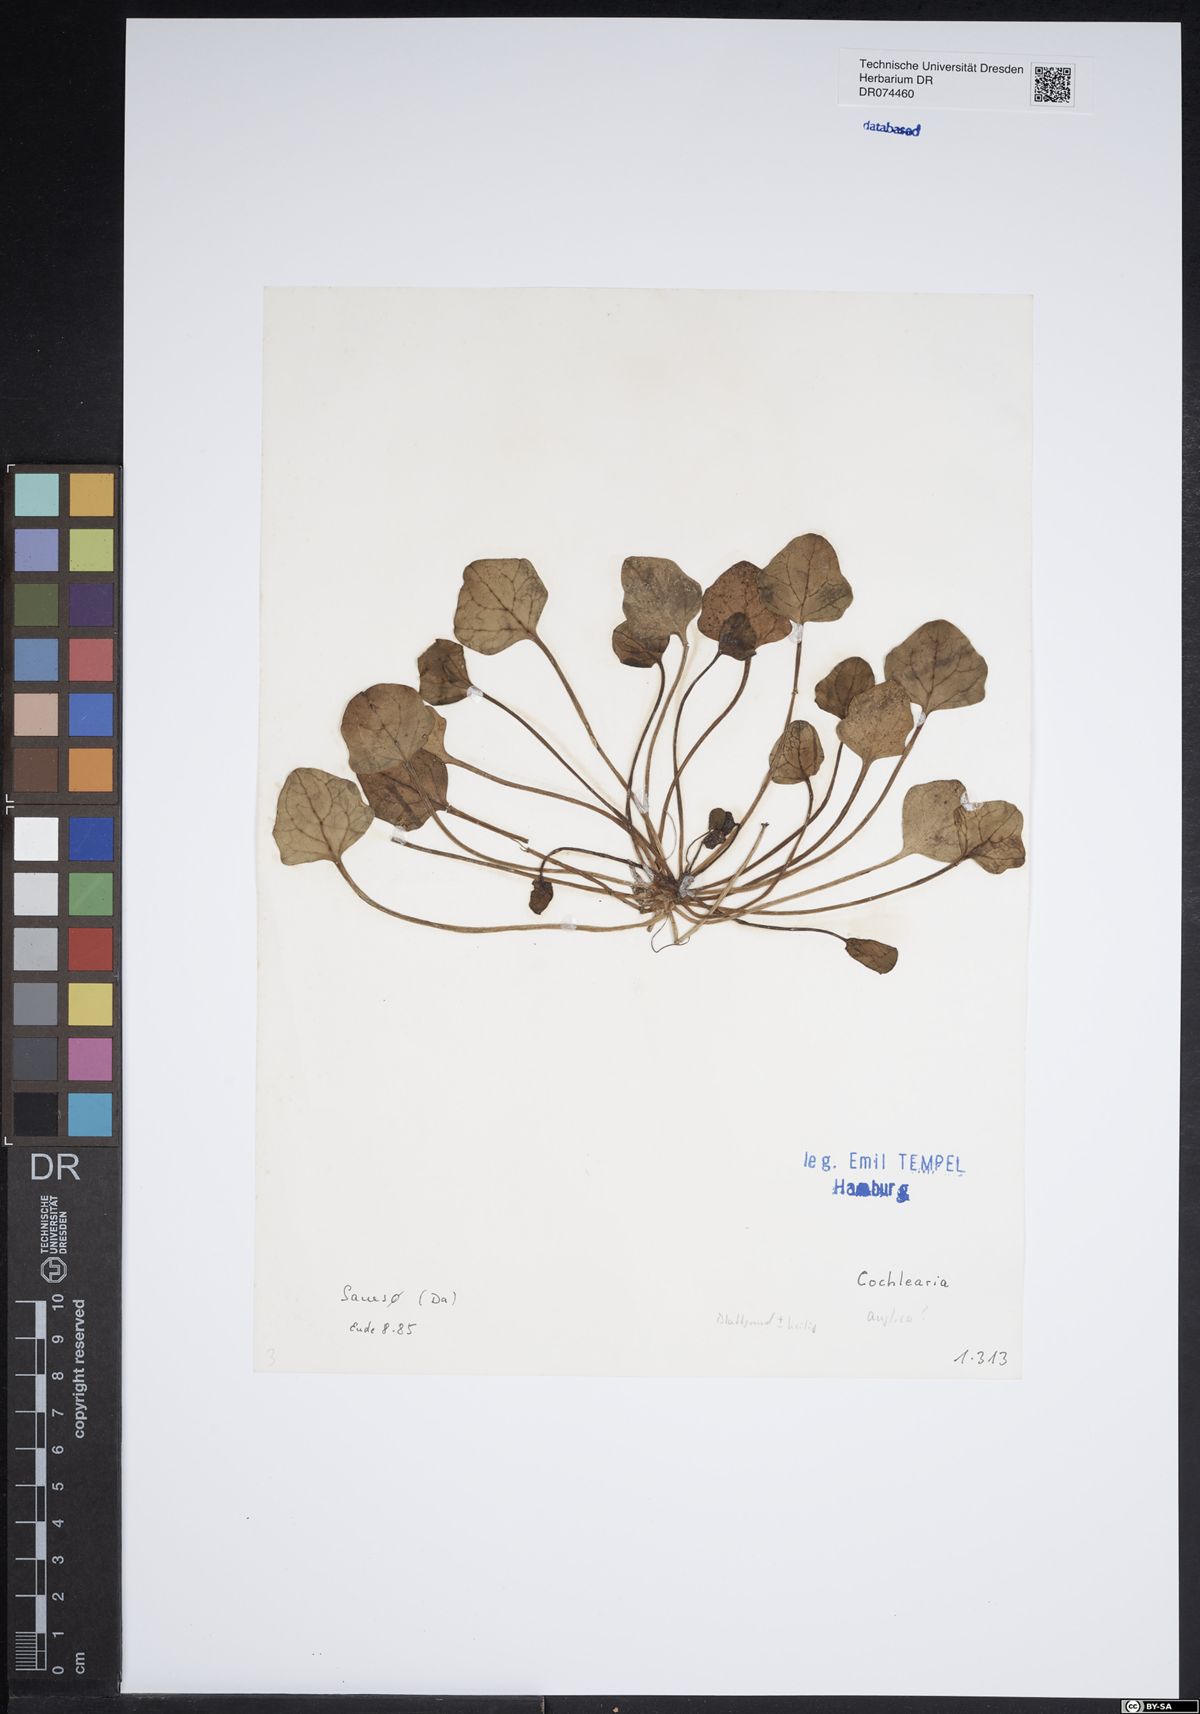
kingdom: Plantae
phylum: Tracheophyta
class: Magnoliopsida
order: Brassicales
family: Brassicaceae
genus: Cochlearia
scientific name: Cochlearia anglica
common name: English scurvygrass
